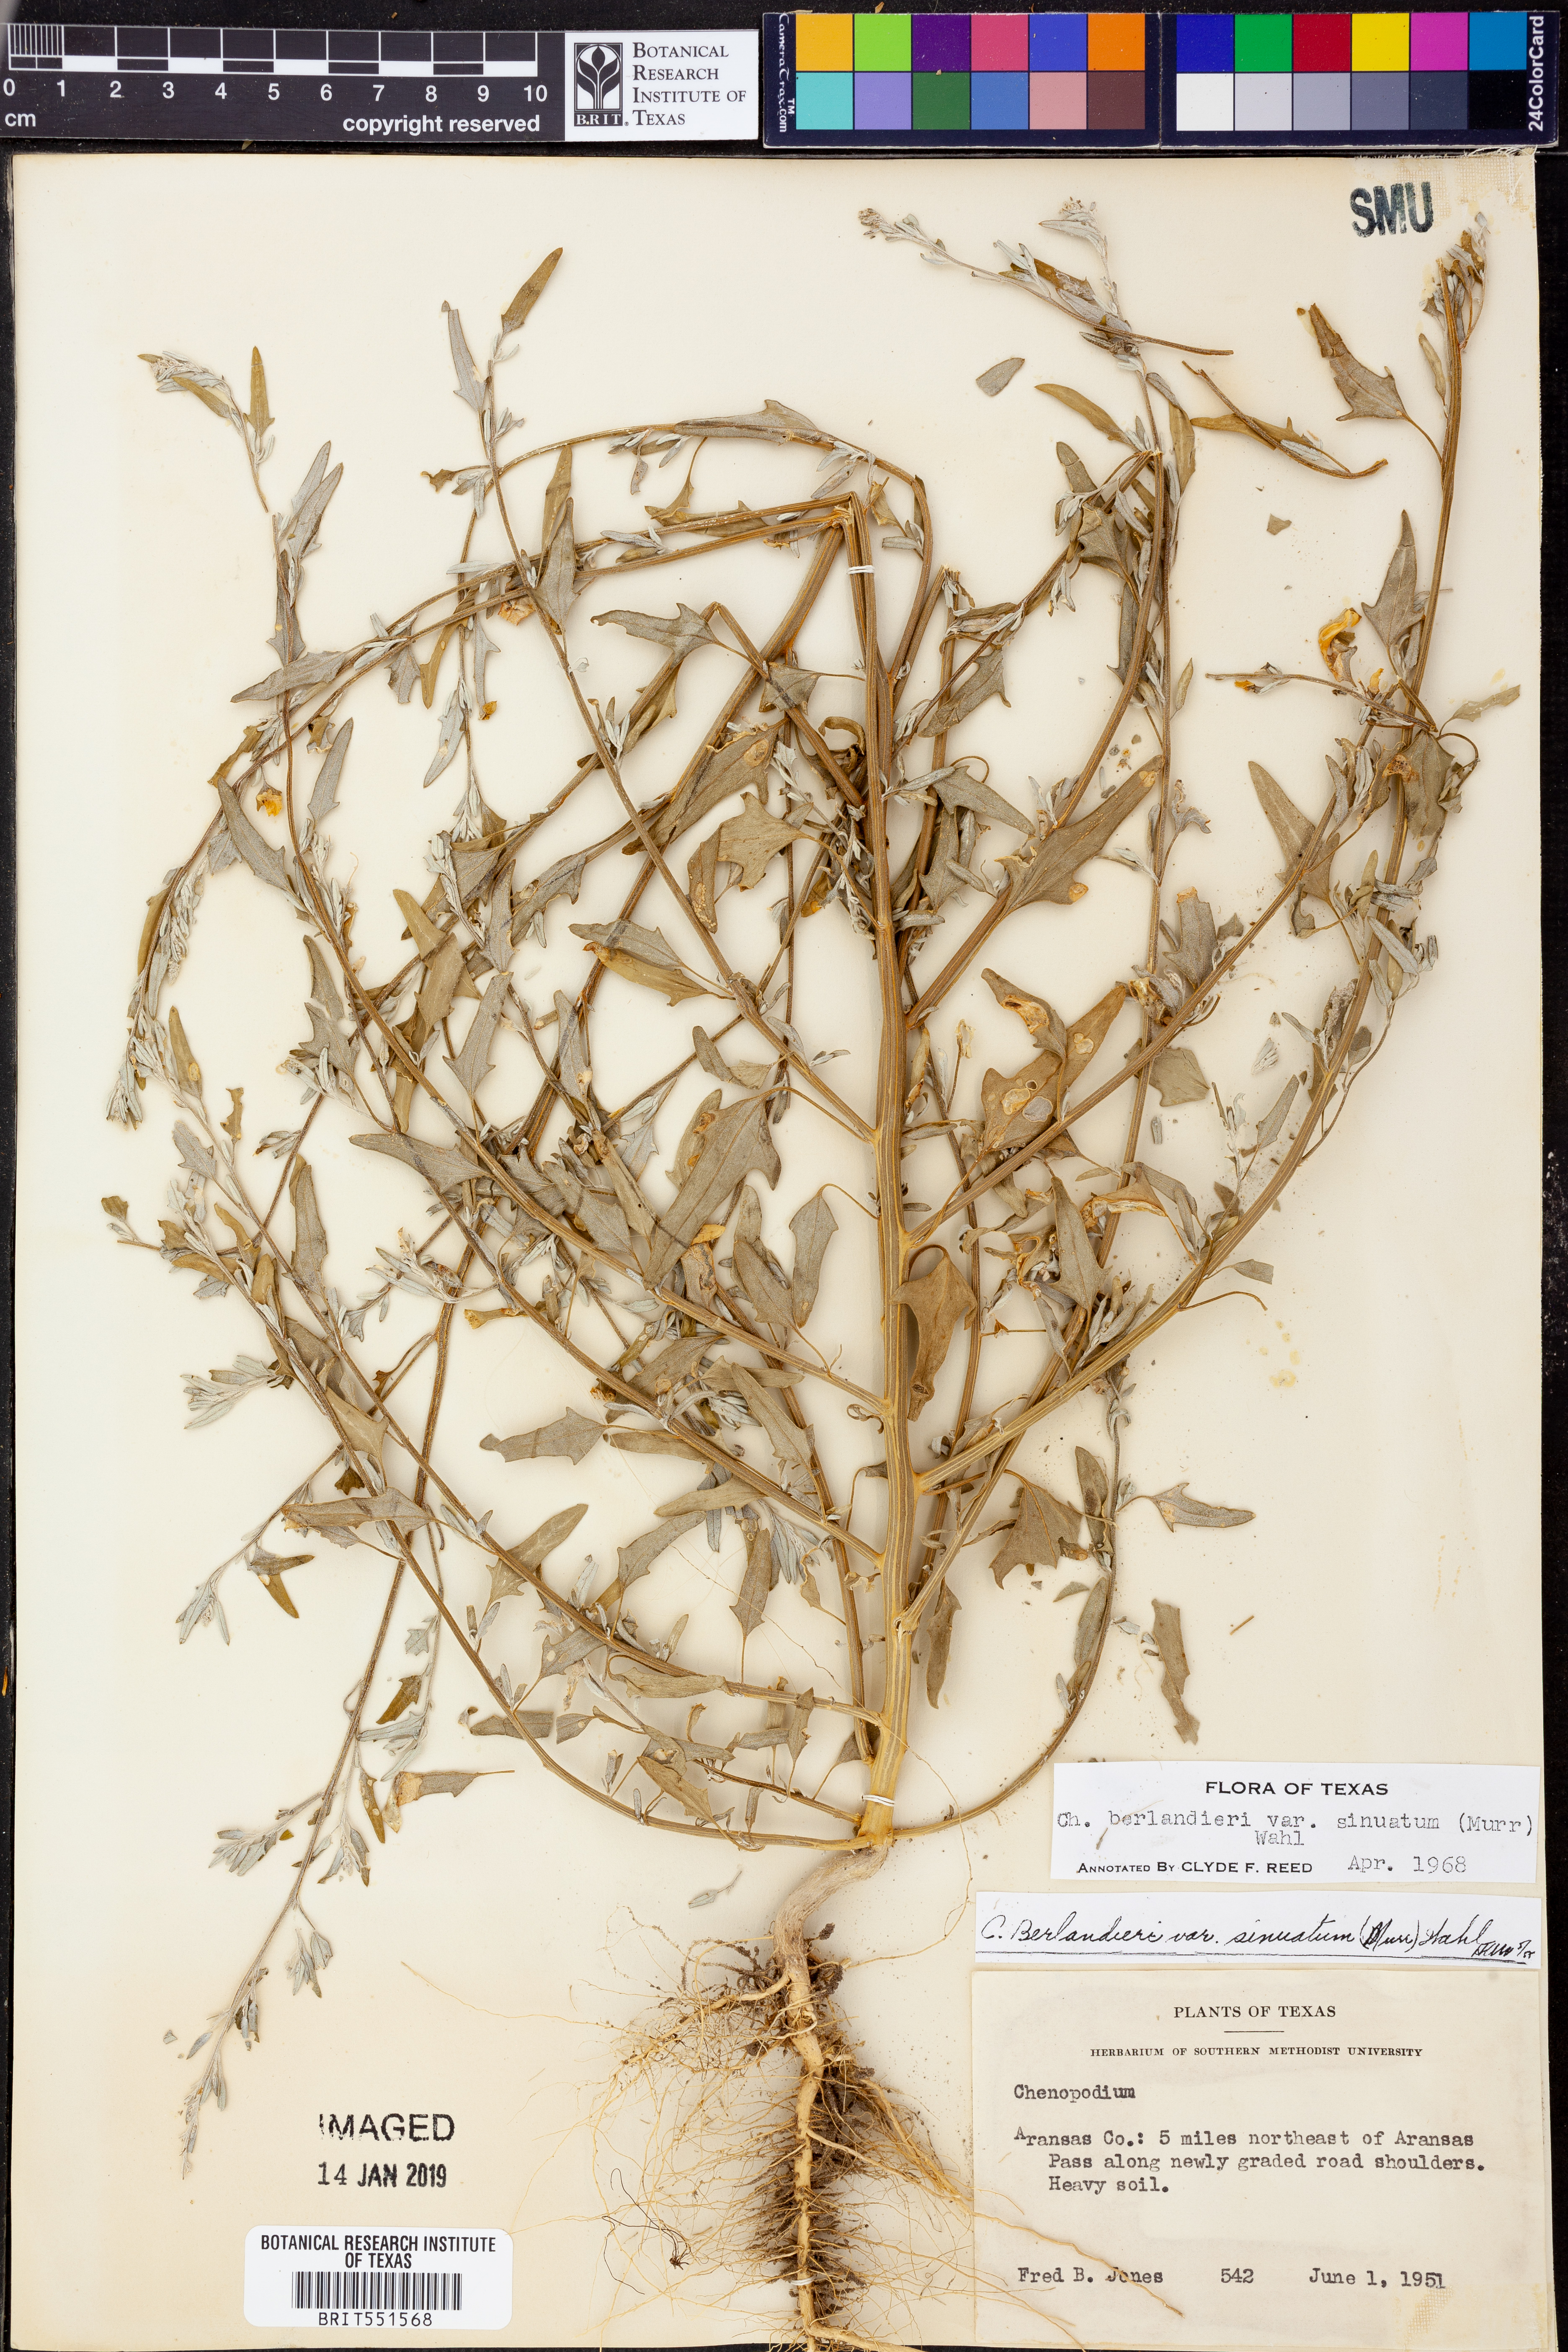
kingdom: Plantae
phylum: Tracheophyta
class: Magnoliopsida
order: Caryophyllales
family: Amaranthaceae
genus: Chenopodium
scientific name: Chenopodium berlandieri
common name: Pit-seed goosefoot
